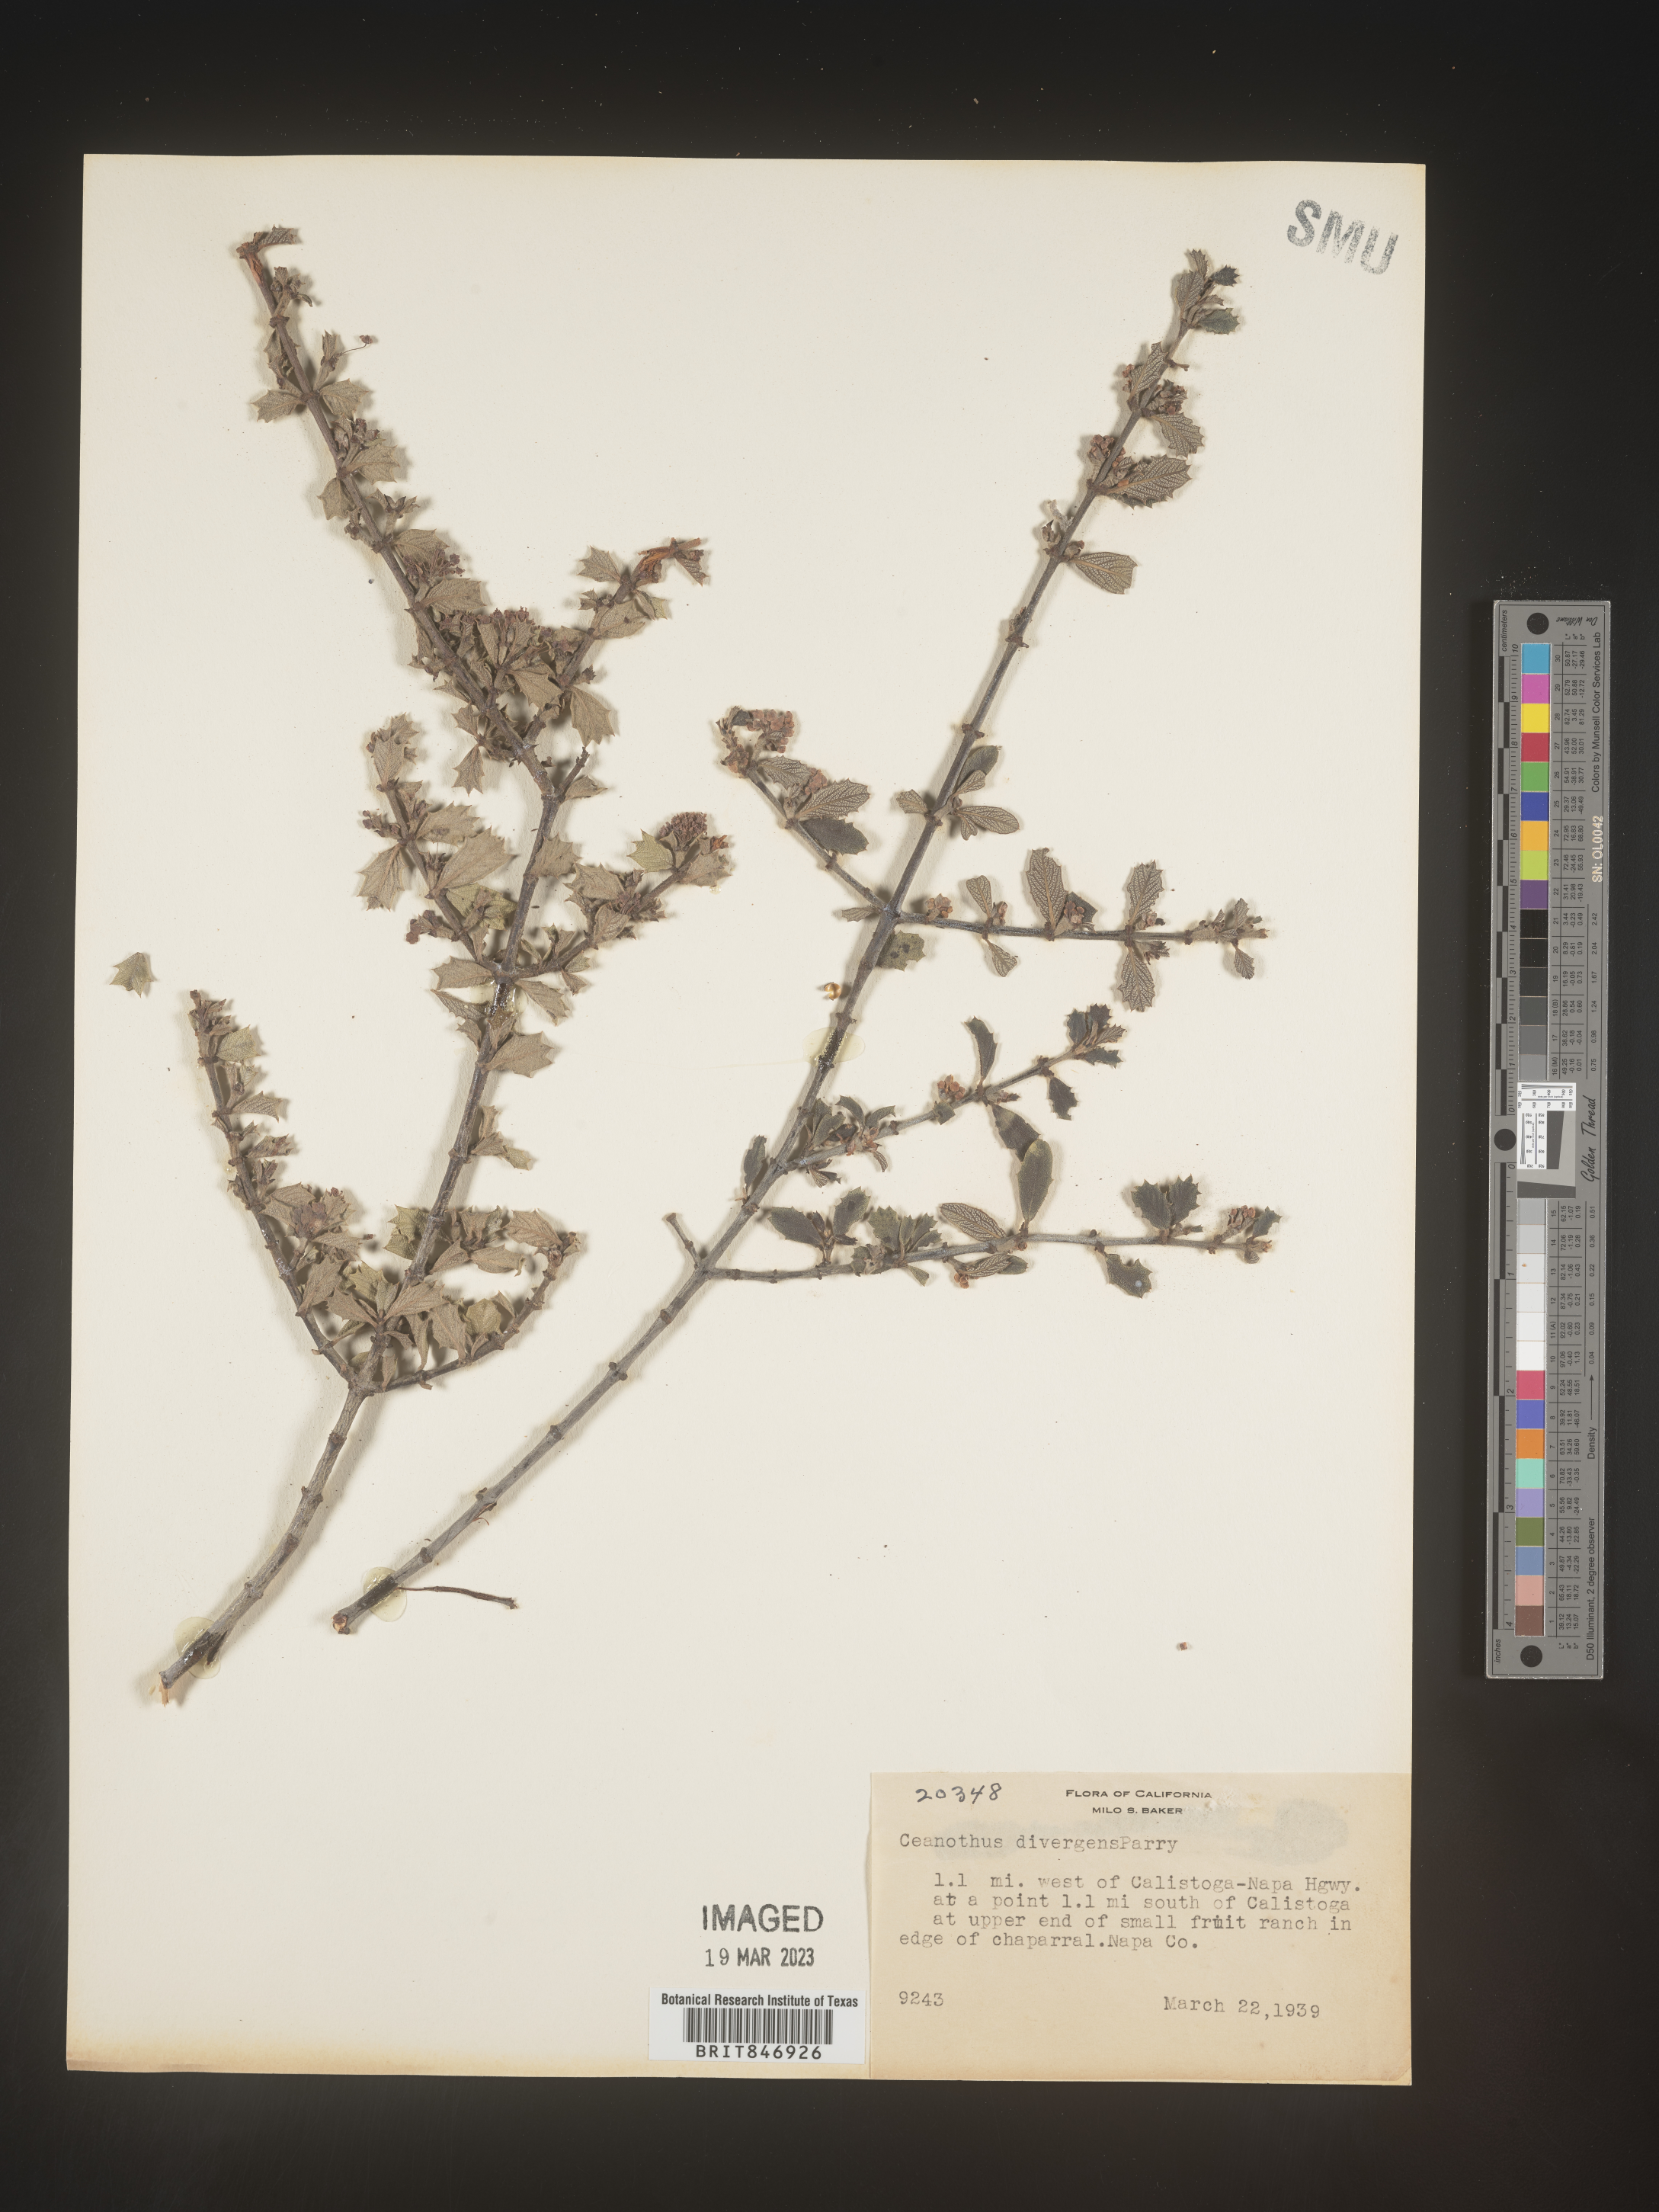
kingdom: Plantae
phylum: Tracheophyta
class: Magnoliopsida
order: Rosales
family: Rhamnaceae
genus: Ceanothus
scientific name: Ceanothus
